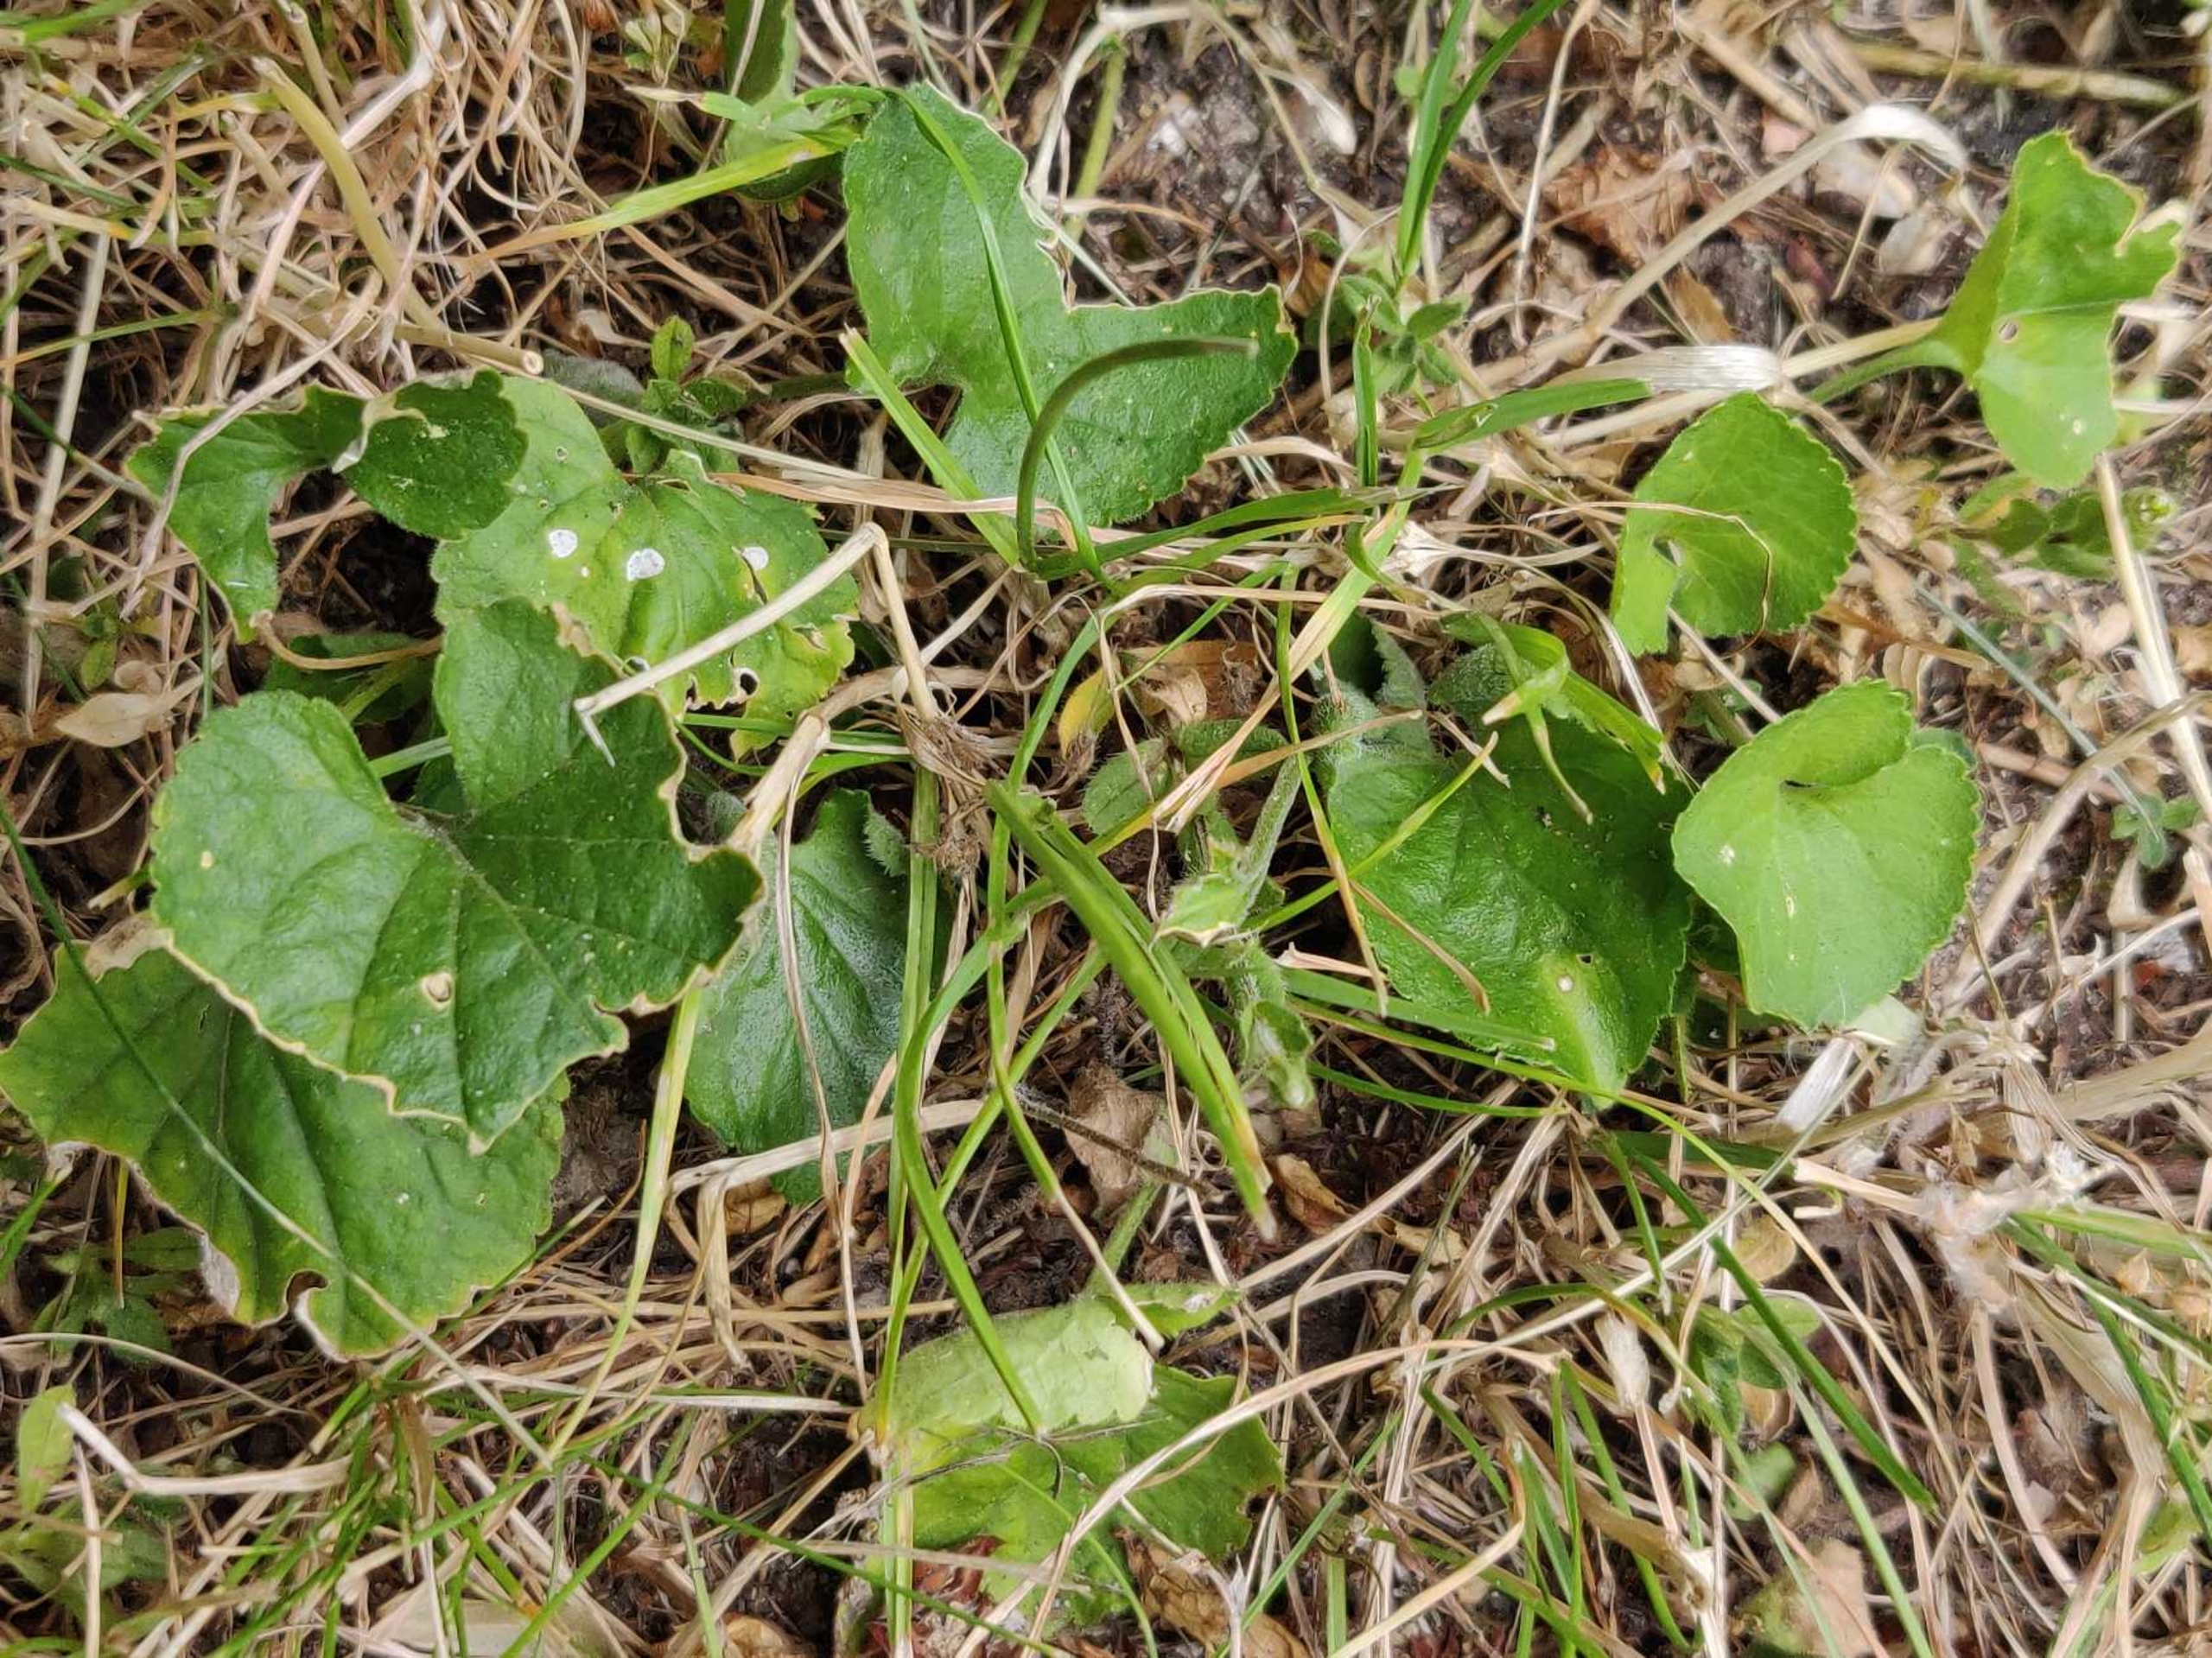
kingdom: Plantae
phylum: Tracheophyta
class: Magnoliopsida
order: Malpighiales
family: Violaceae
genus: Viola
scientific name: Viola odorata
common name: Marts-viol
